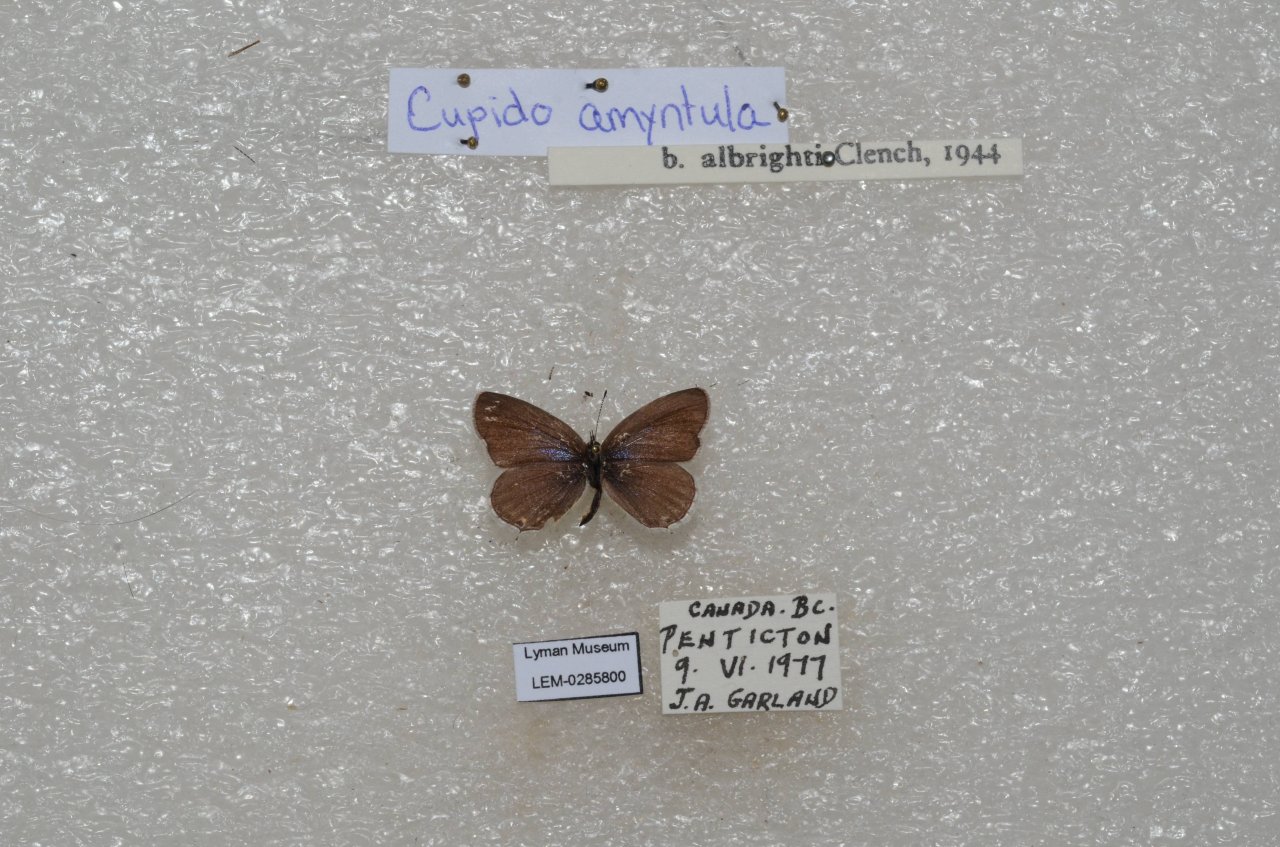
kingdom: Animalia
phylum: Arthropoda
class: Insecta
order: Lepidoptera
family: Lycaenidae
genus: Elkalyce
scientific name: Elkalyce amyntula
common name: Western Tailed-Blue
